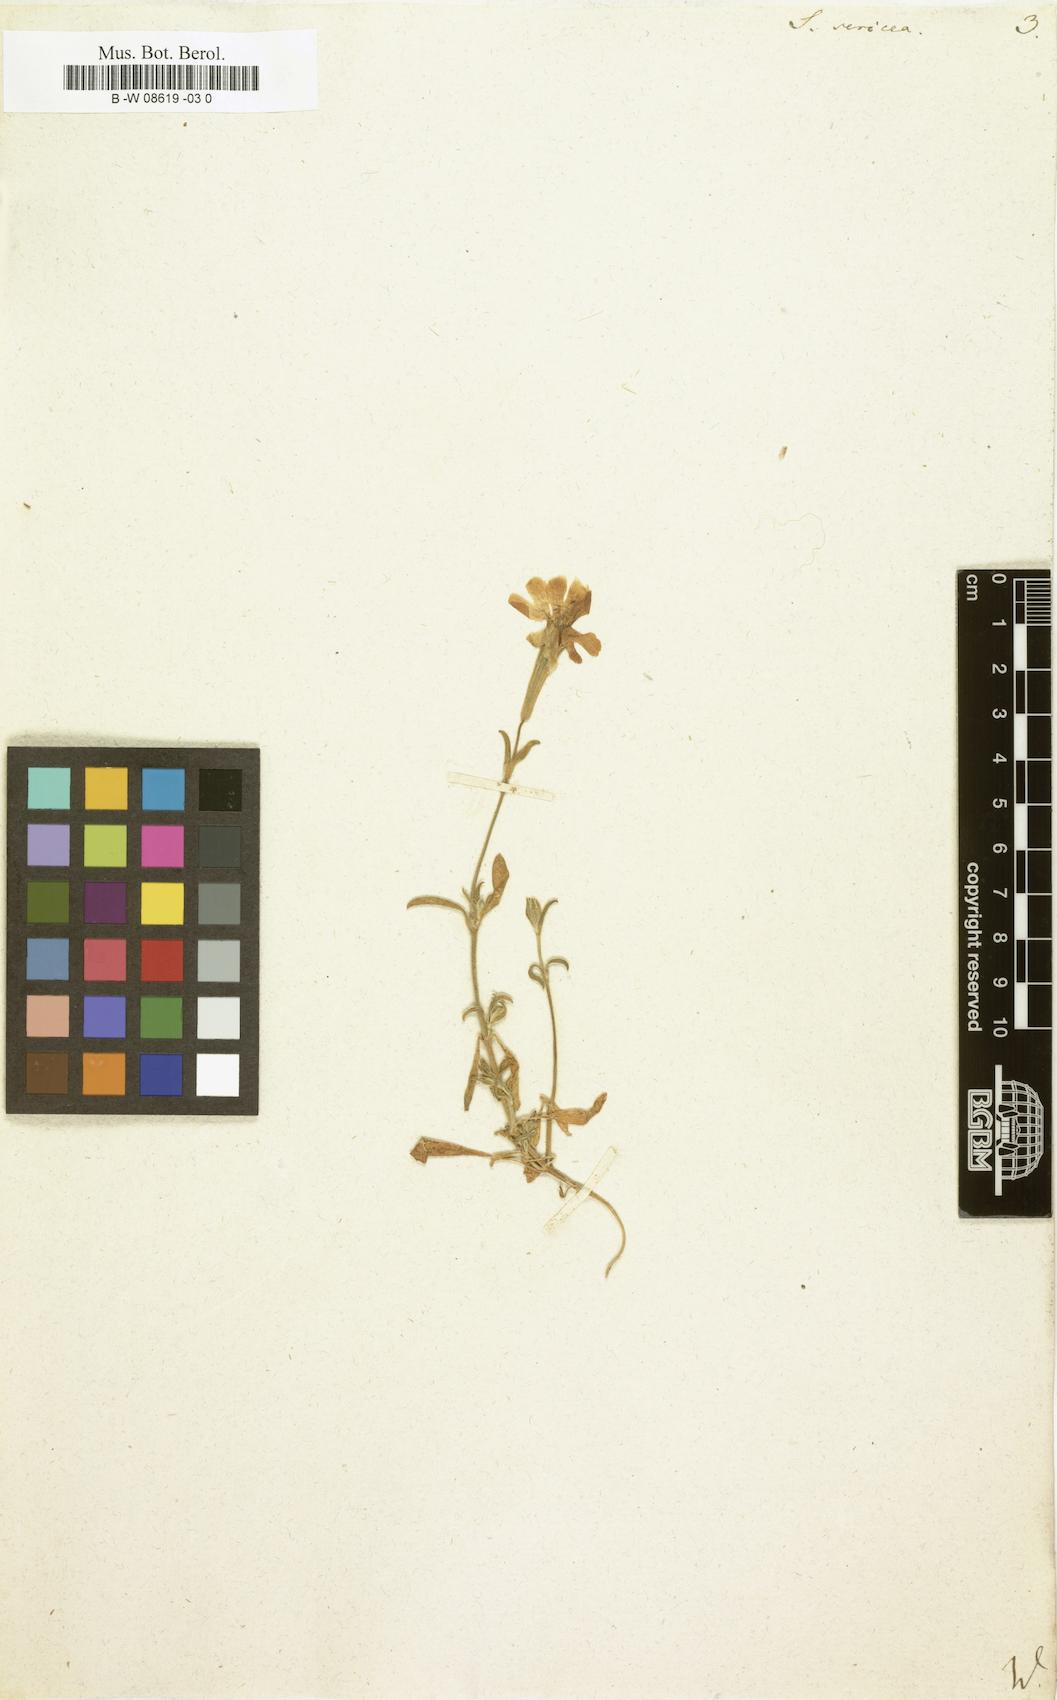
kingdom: Plantae
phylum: Tracheophyta
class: Magnoliopsida
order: Caryophyllales
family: Caryophyllaceae
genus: Silene
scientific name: Silene sericea
